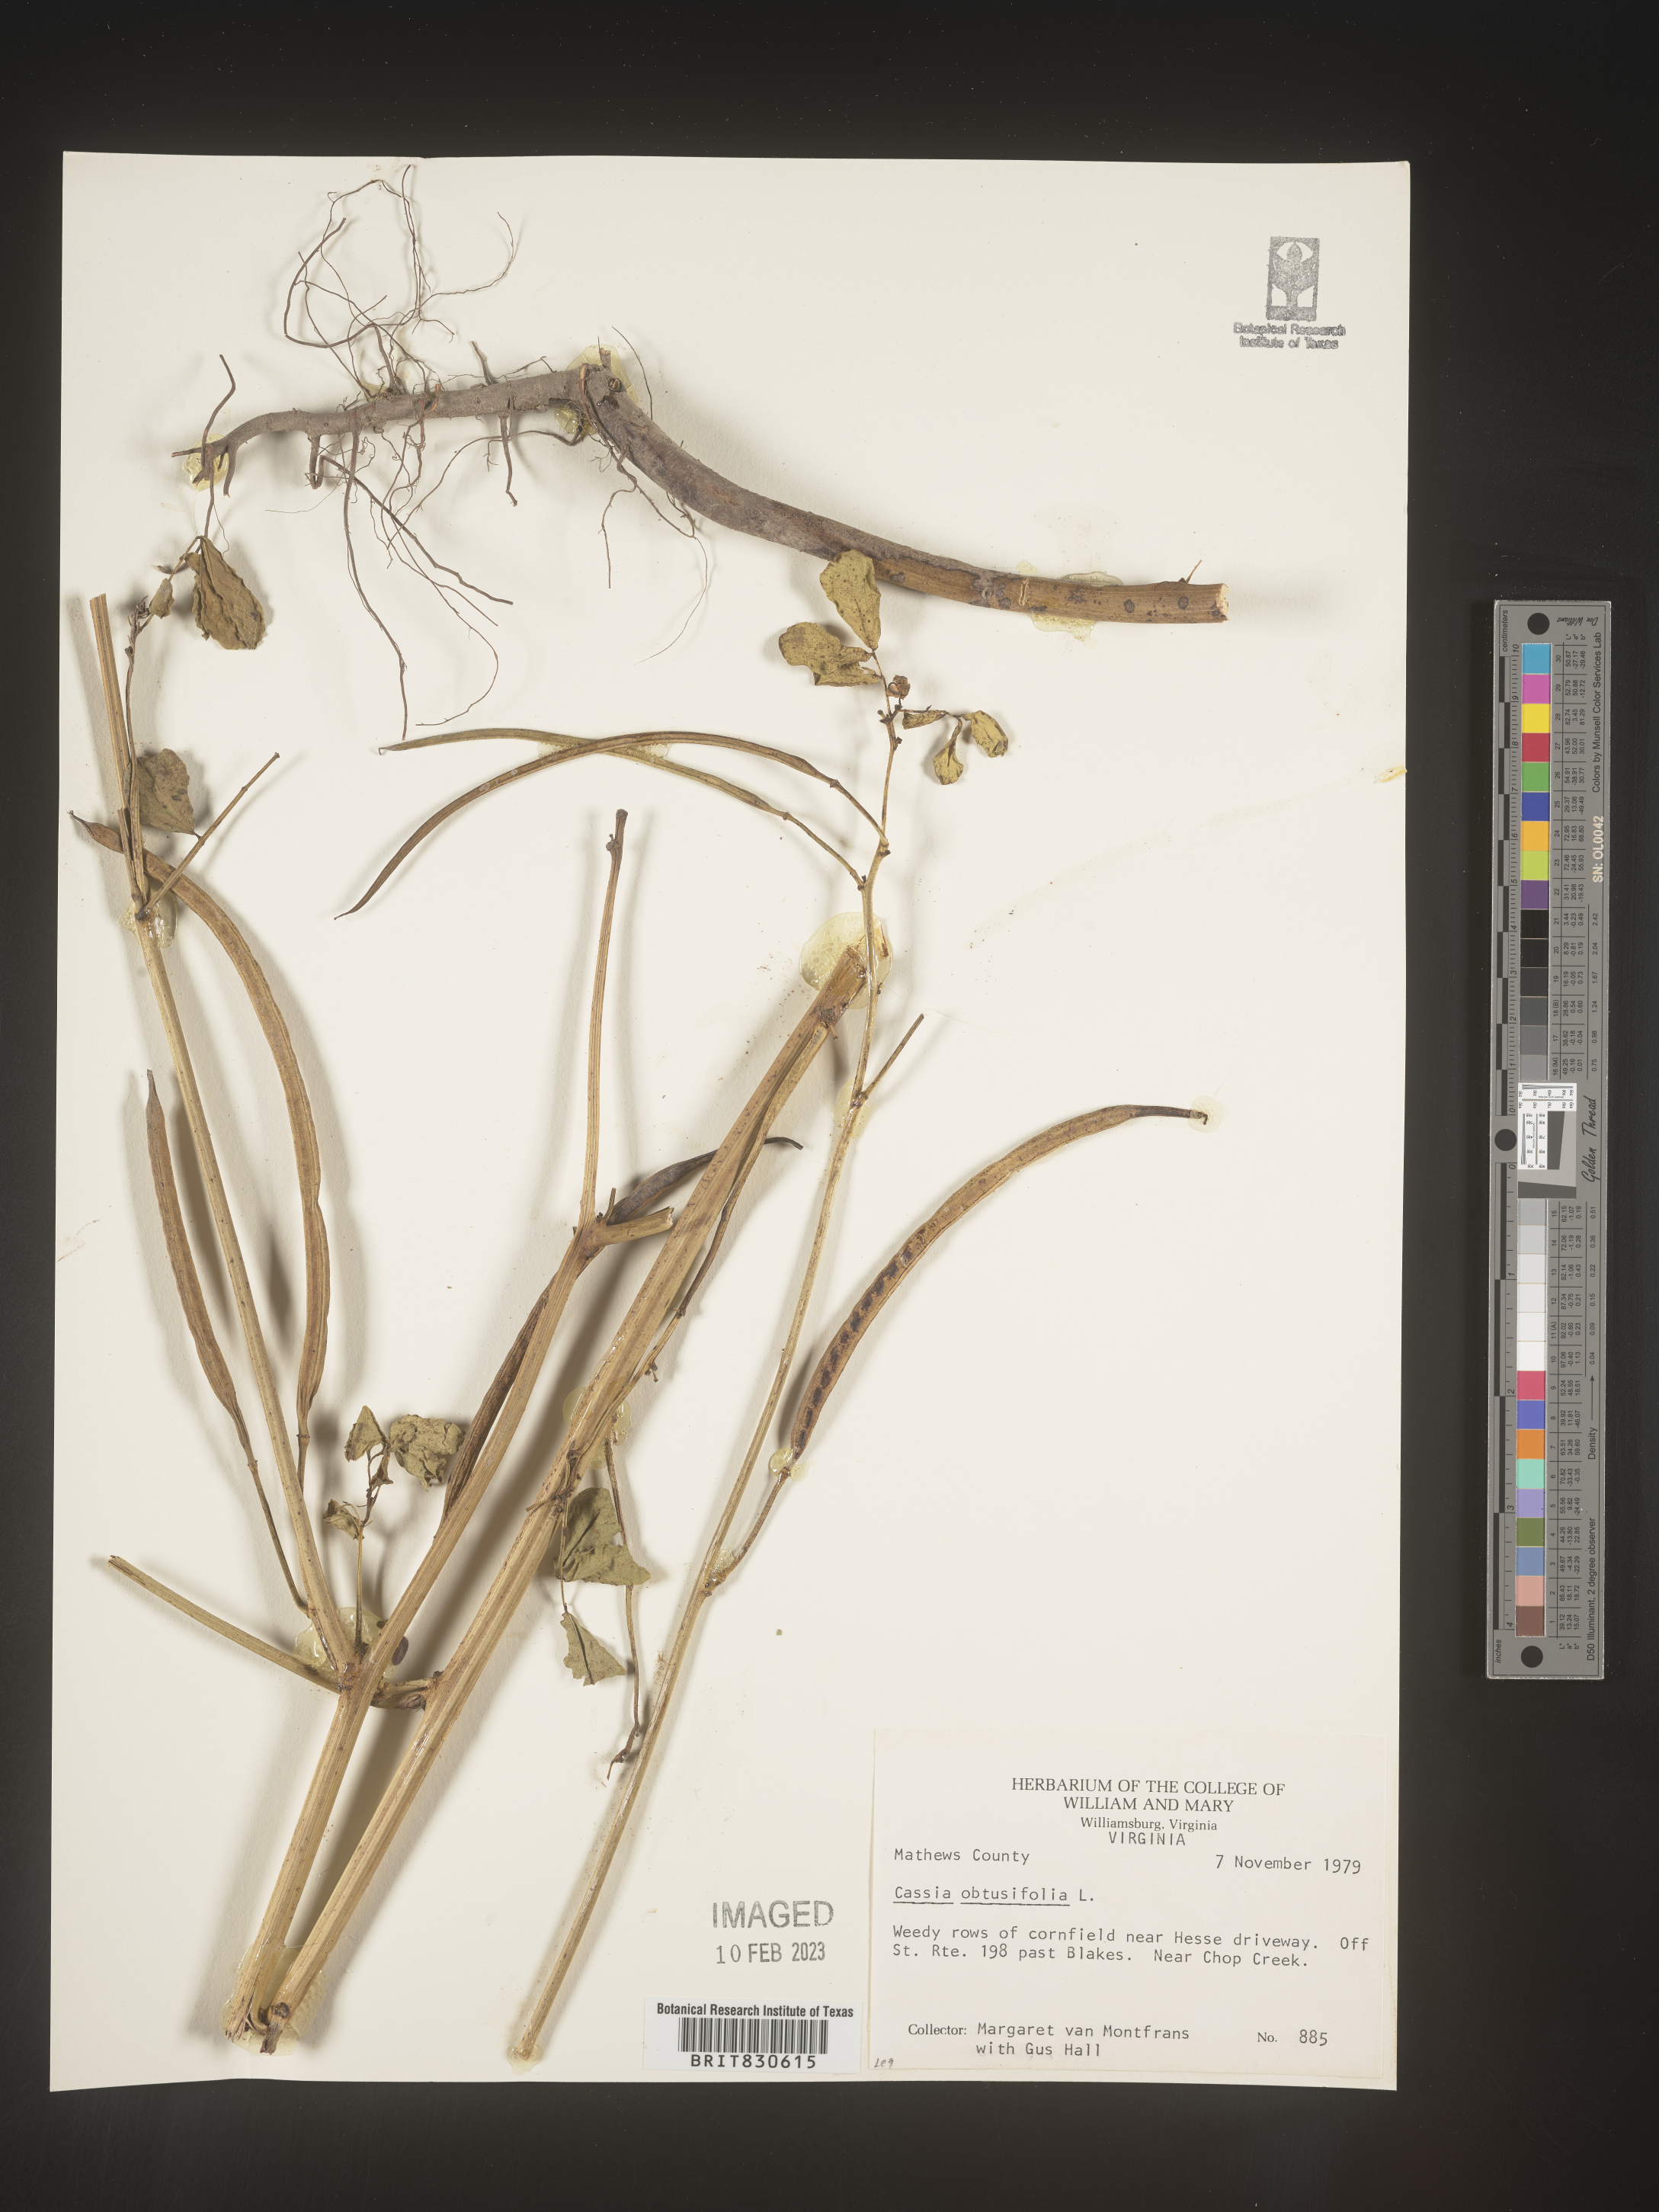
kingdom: Plantae
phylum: Tracheophyta
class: Magnoliopsida
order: Fabales
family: Fabaceae
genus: Senna
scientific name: Senna obtusifolia
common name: Java-bean
